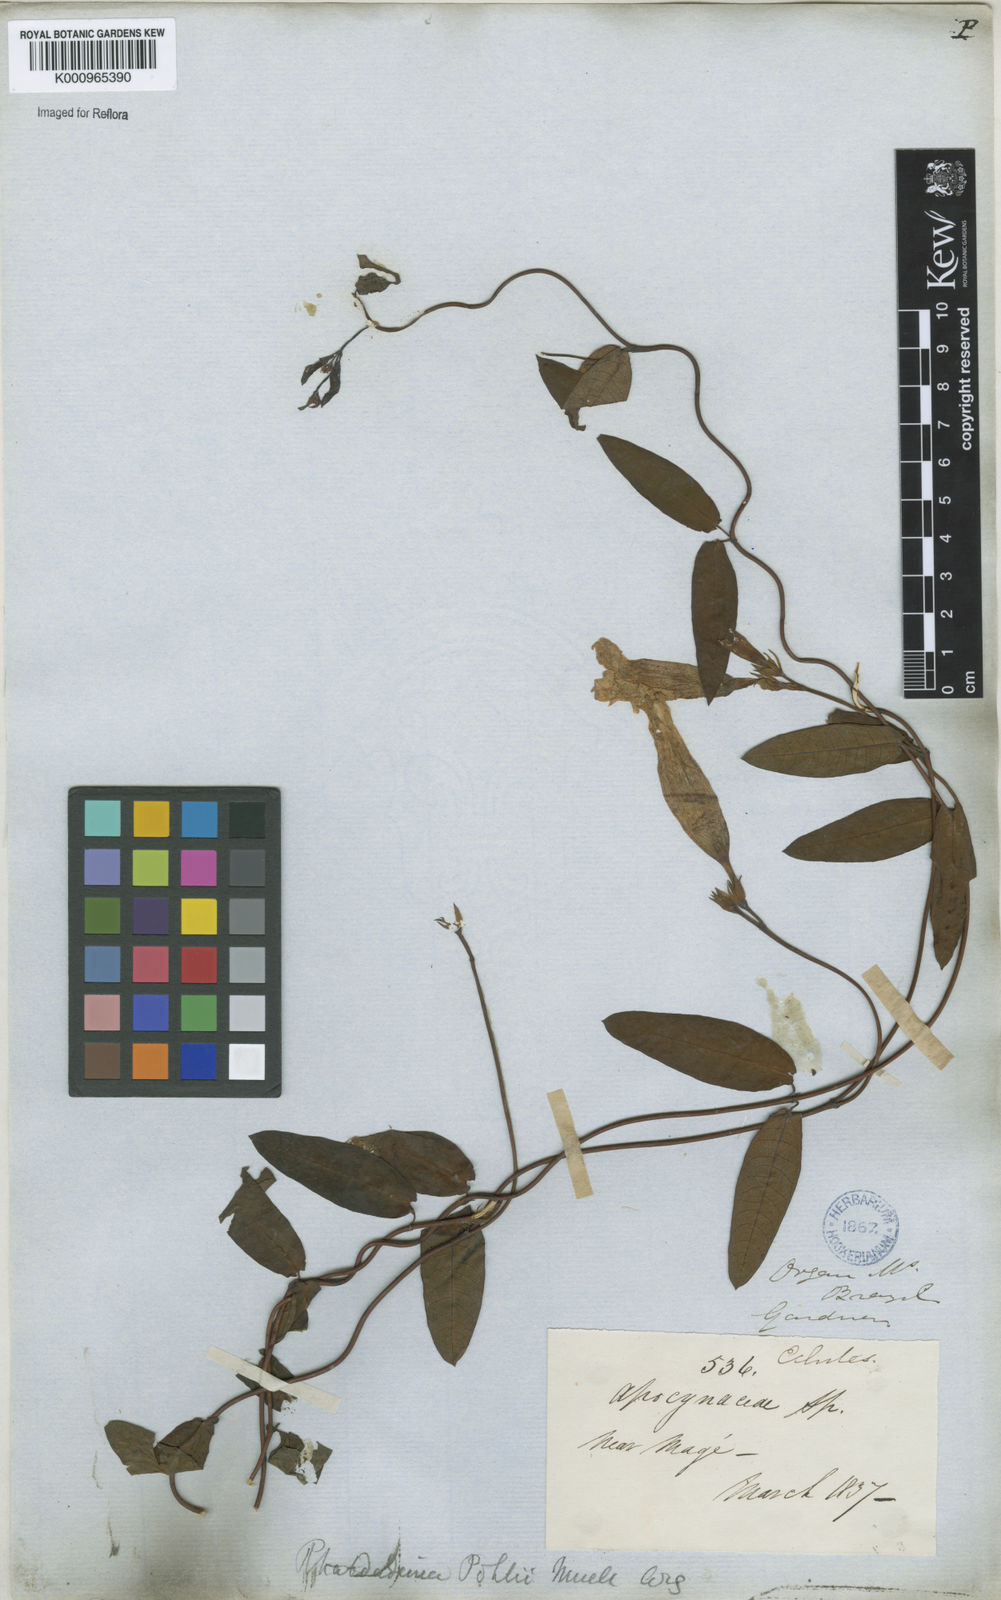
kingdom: Plantae
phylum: Tracheophyta
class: Magnoliopsida
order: Gentianales
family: Apocynaceae
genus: Rhabdadenia
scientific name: Rhabdadenia madida
